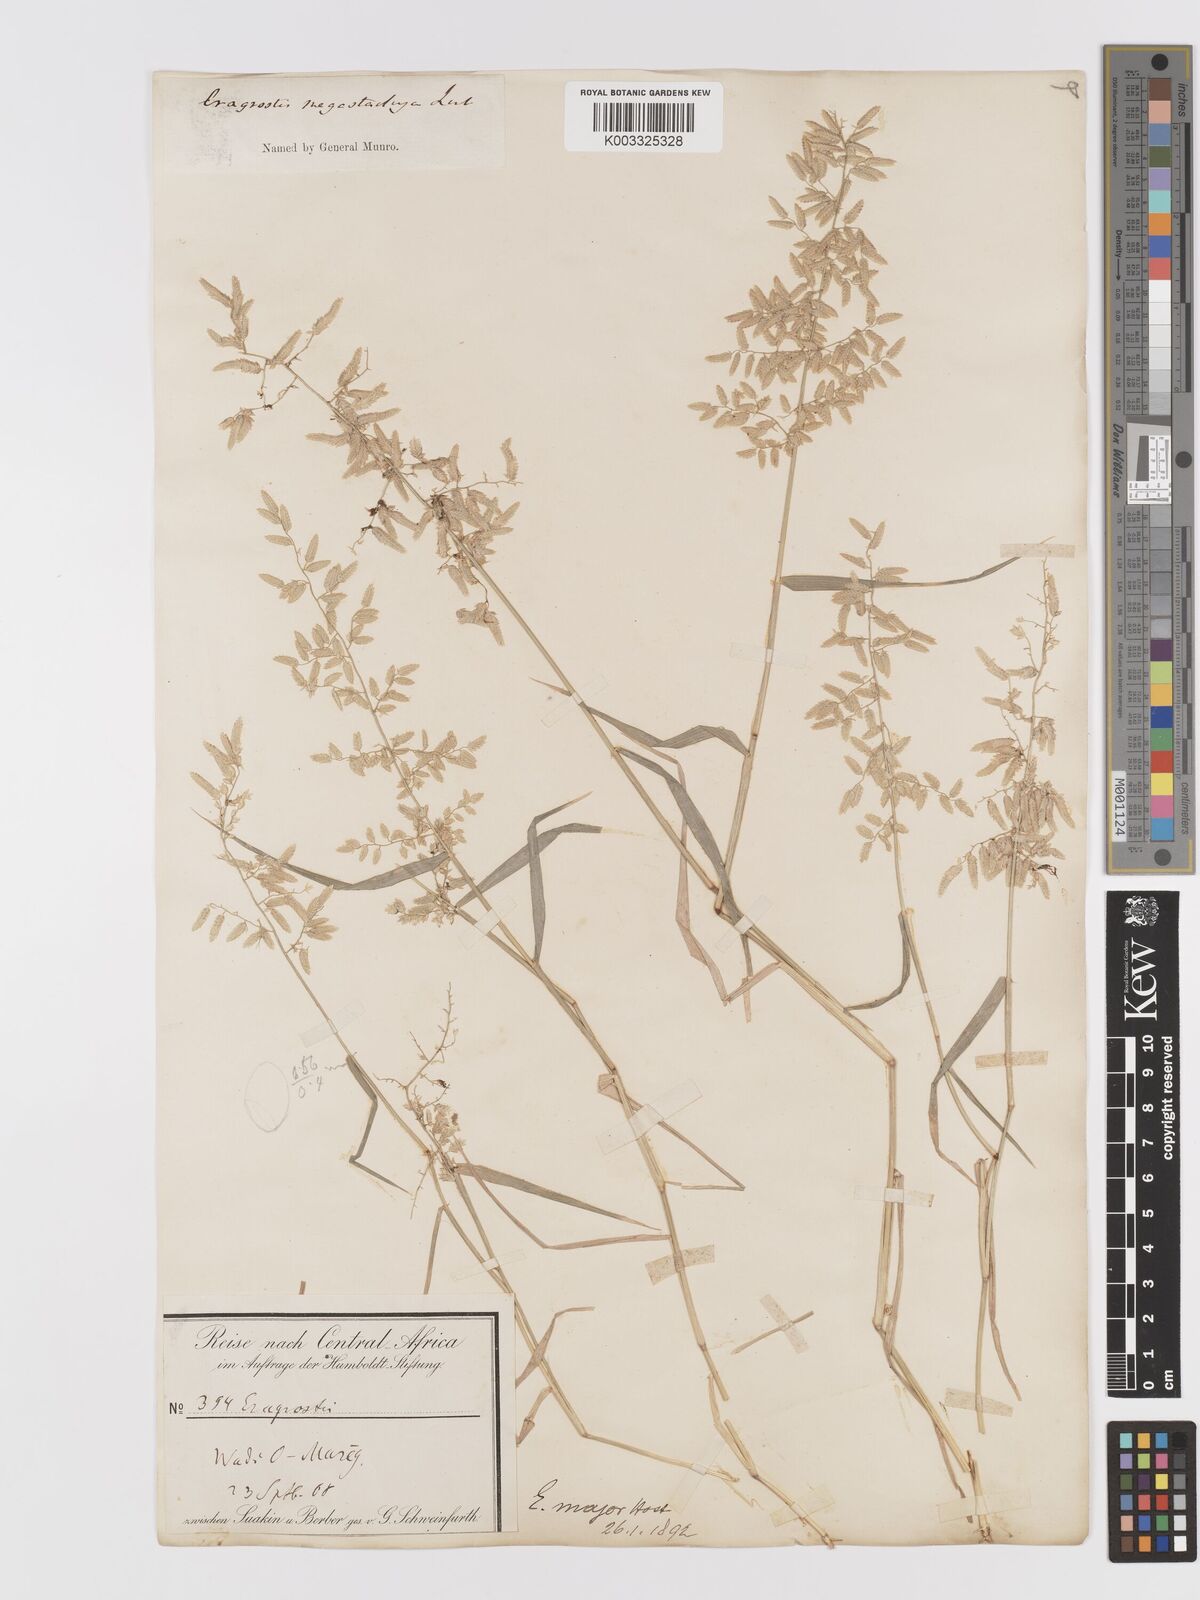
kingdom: Plantae
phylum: Tracheophyta
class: Liliopsida
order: Poales
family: Poaceae
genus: Eragrostis
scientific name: Eragrostis cilianensis
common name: Stinkgrass
